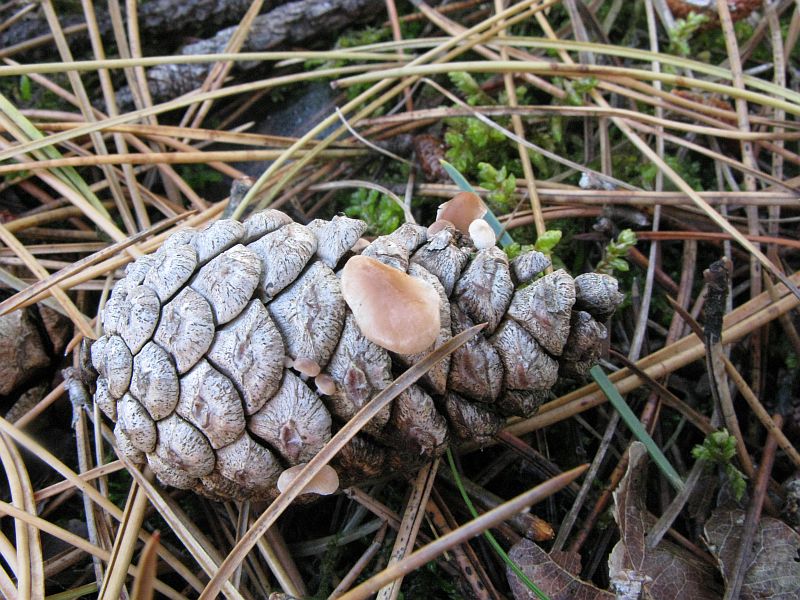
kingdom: Fungi
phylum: Basidiomycota
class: Agaricomycetes
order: Agaricales
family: Marasmiaceae
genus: Baeospora
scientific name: Baeospora myosura
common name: koglebruskhat
